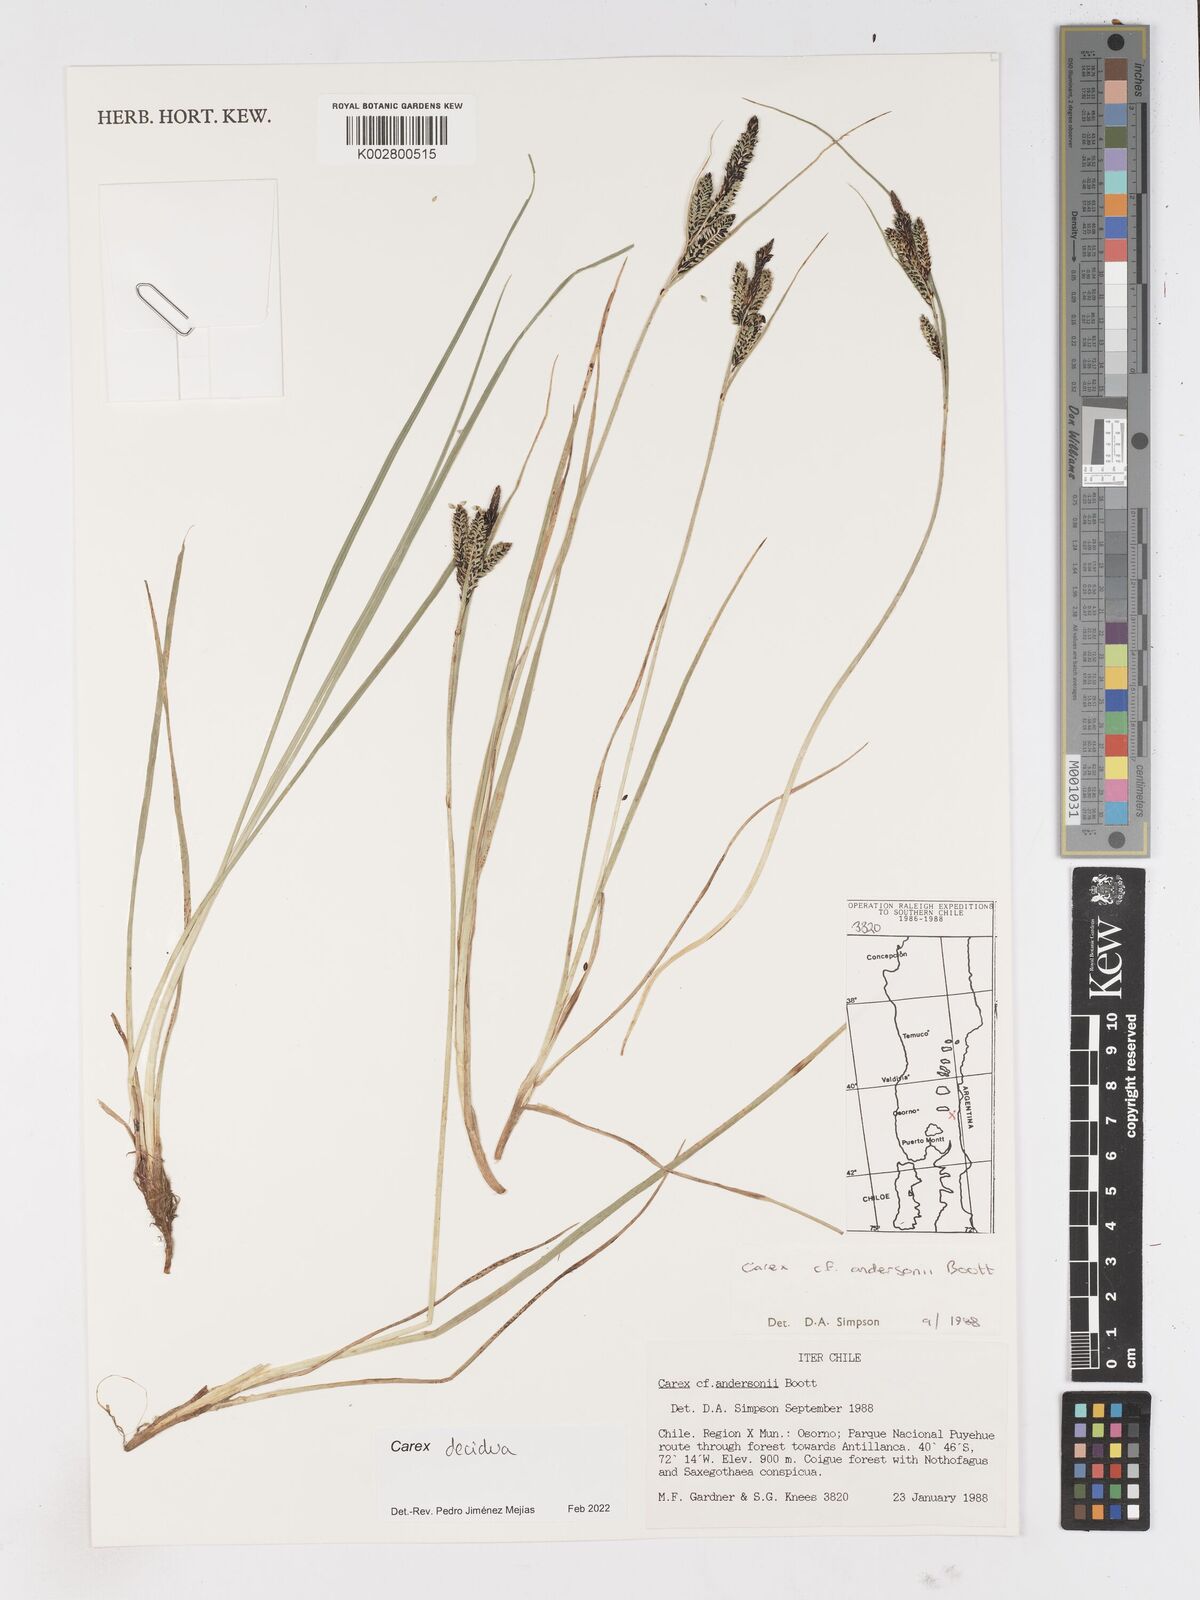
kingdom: Plantae
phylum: Tracheophyta
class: Liliopsida
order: Poales
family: Cyperaceae
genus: Carex
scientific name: Carex decidua
